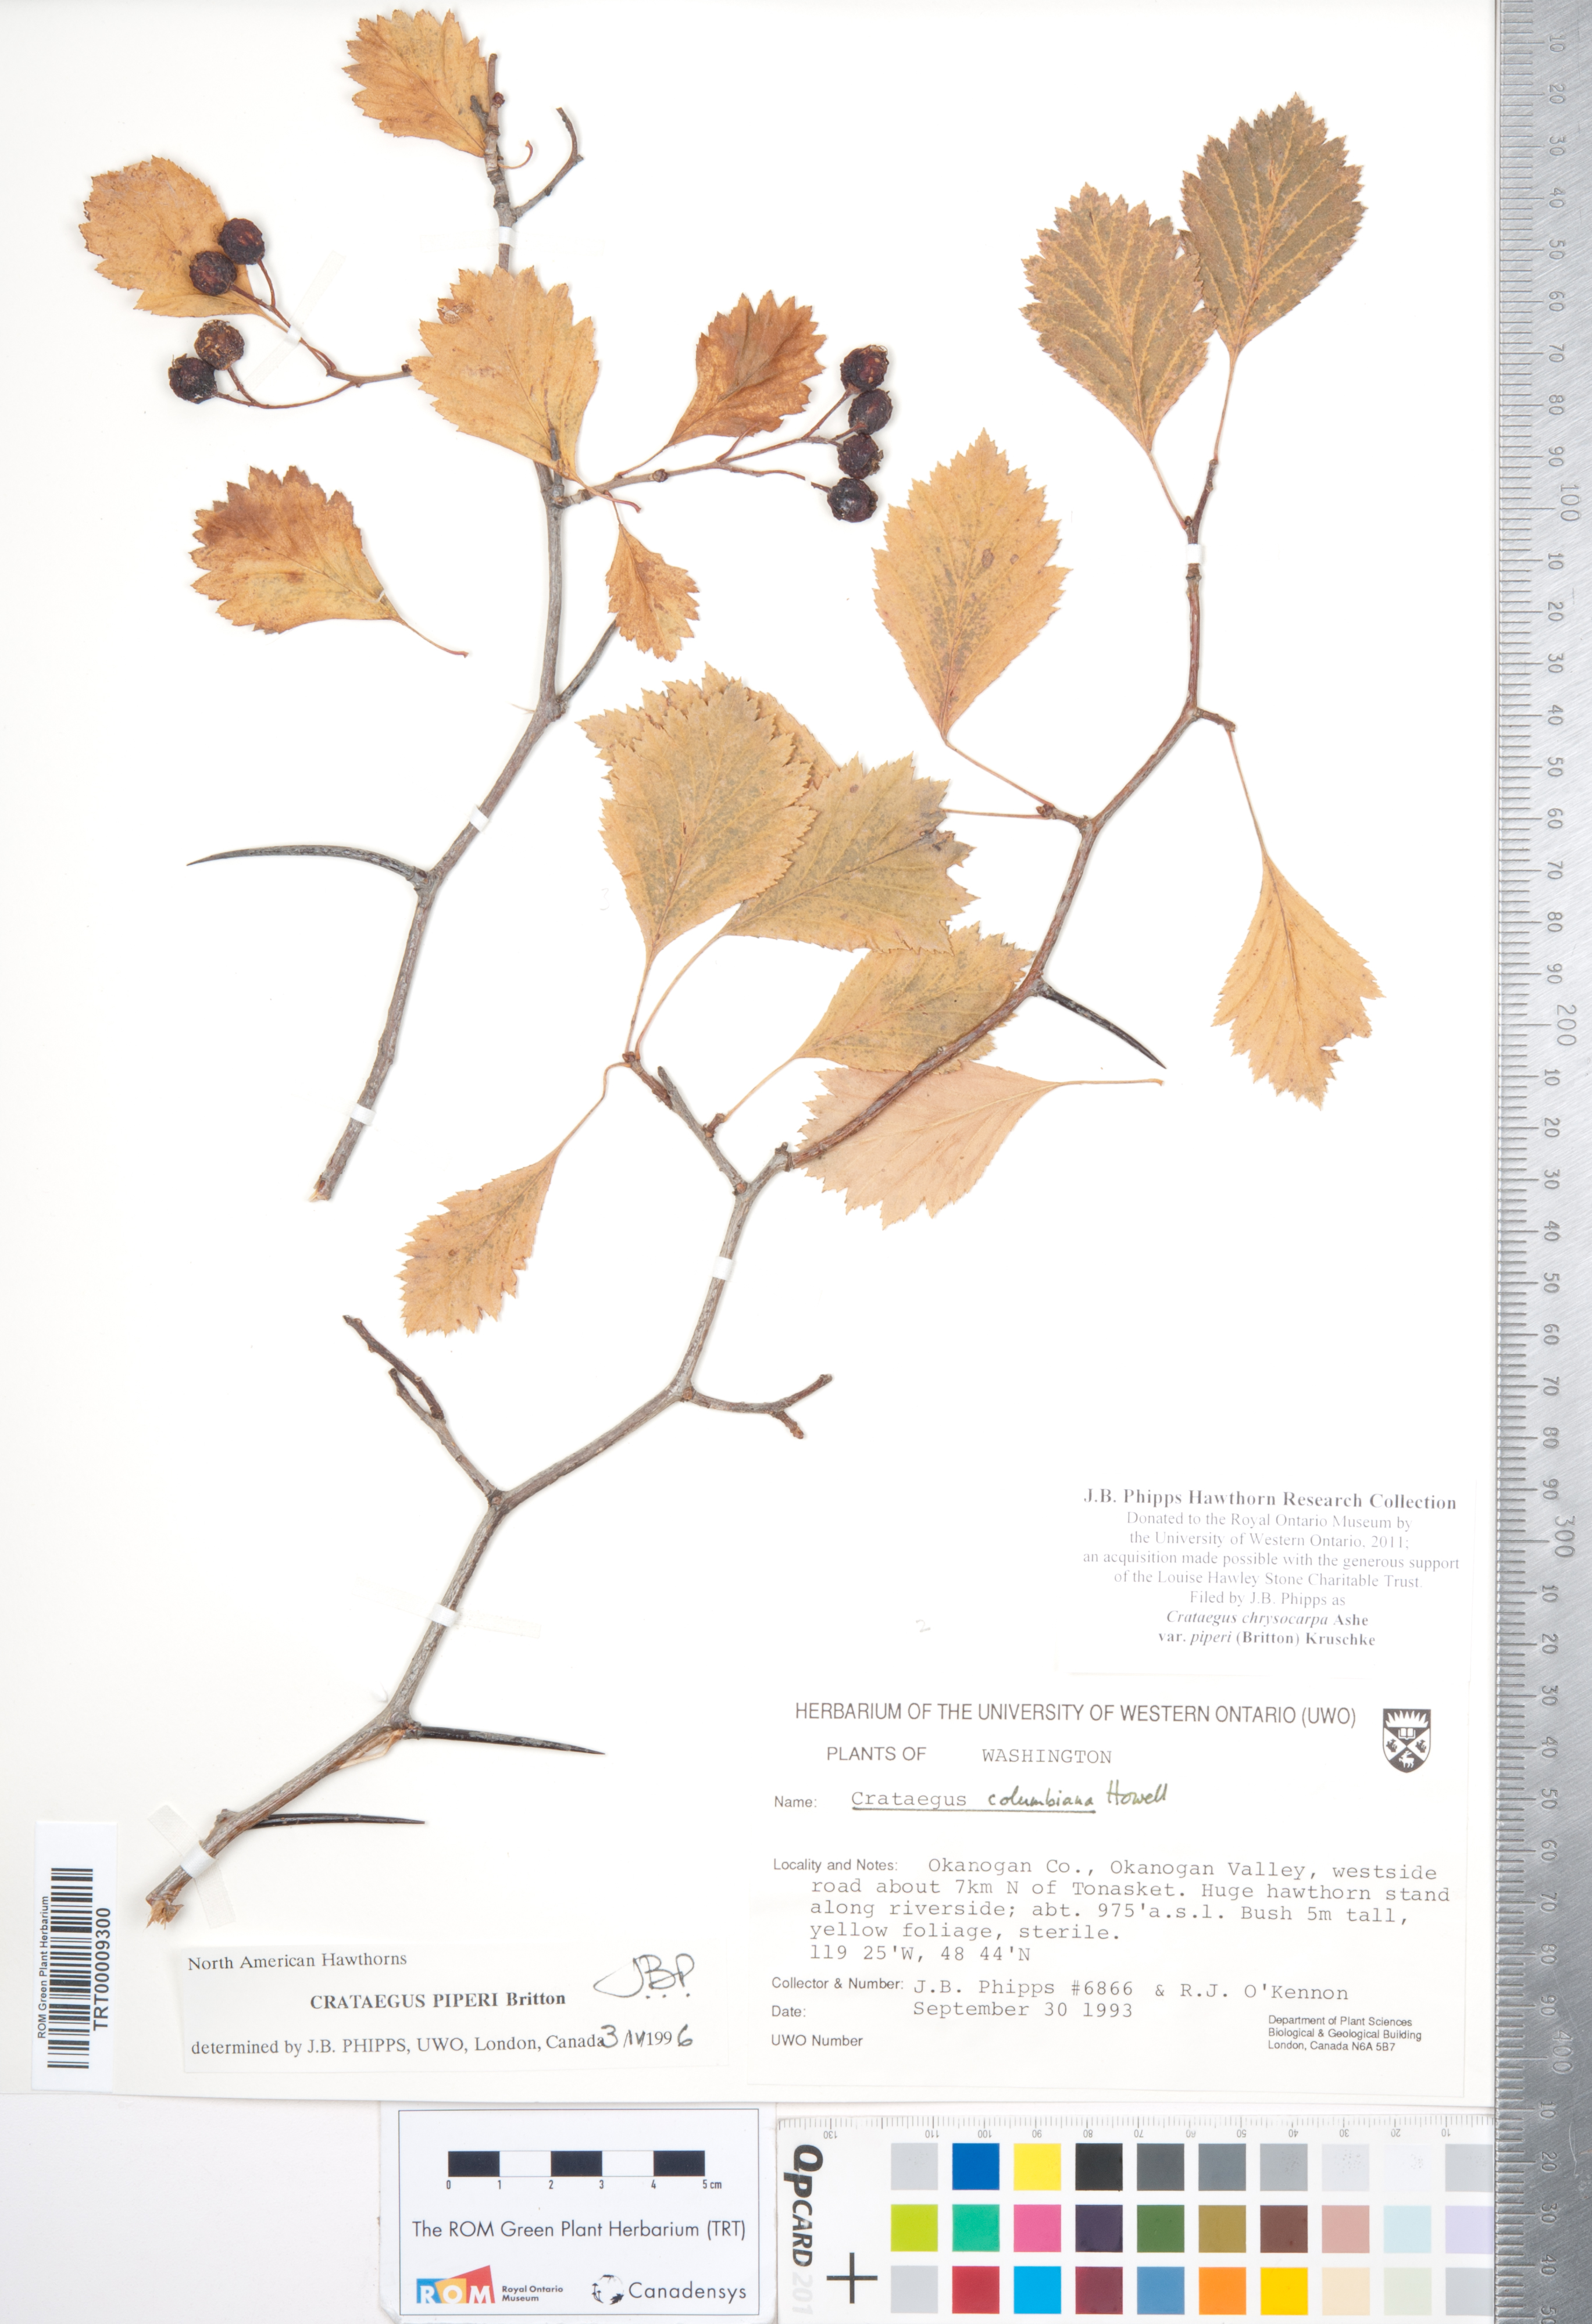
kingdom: Plantae
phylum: Tracheophyta
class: Magnoliopsida
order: Rosales
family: Rosaceae
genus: Crataegus
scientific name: Crataegus piperi
